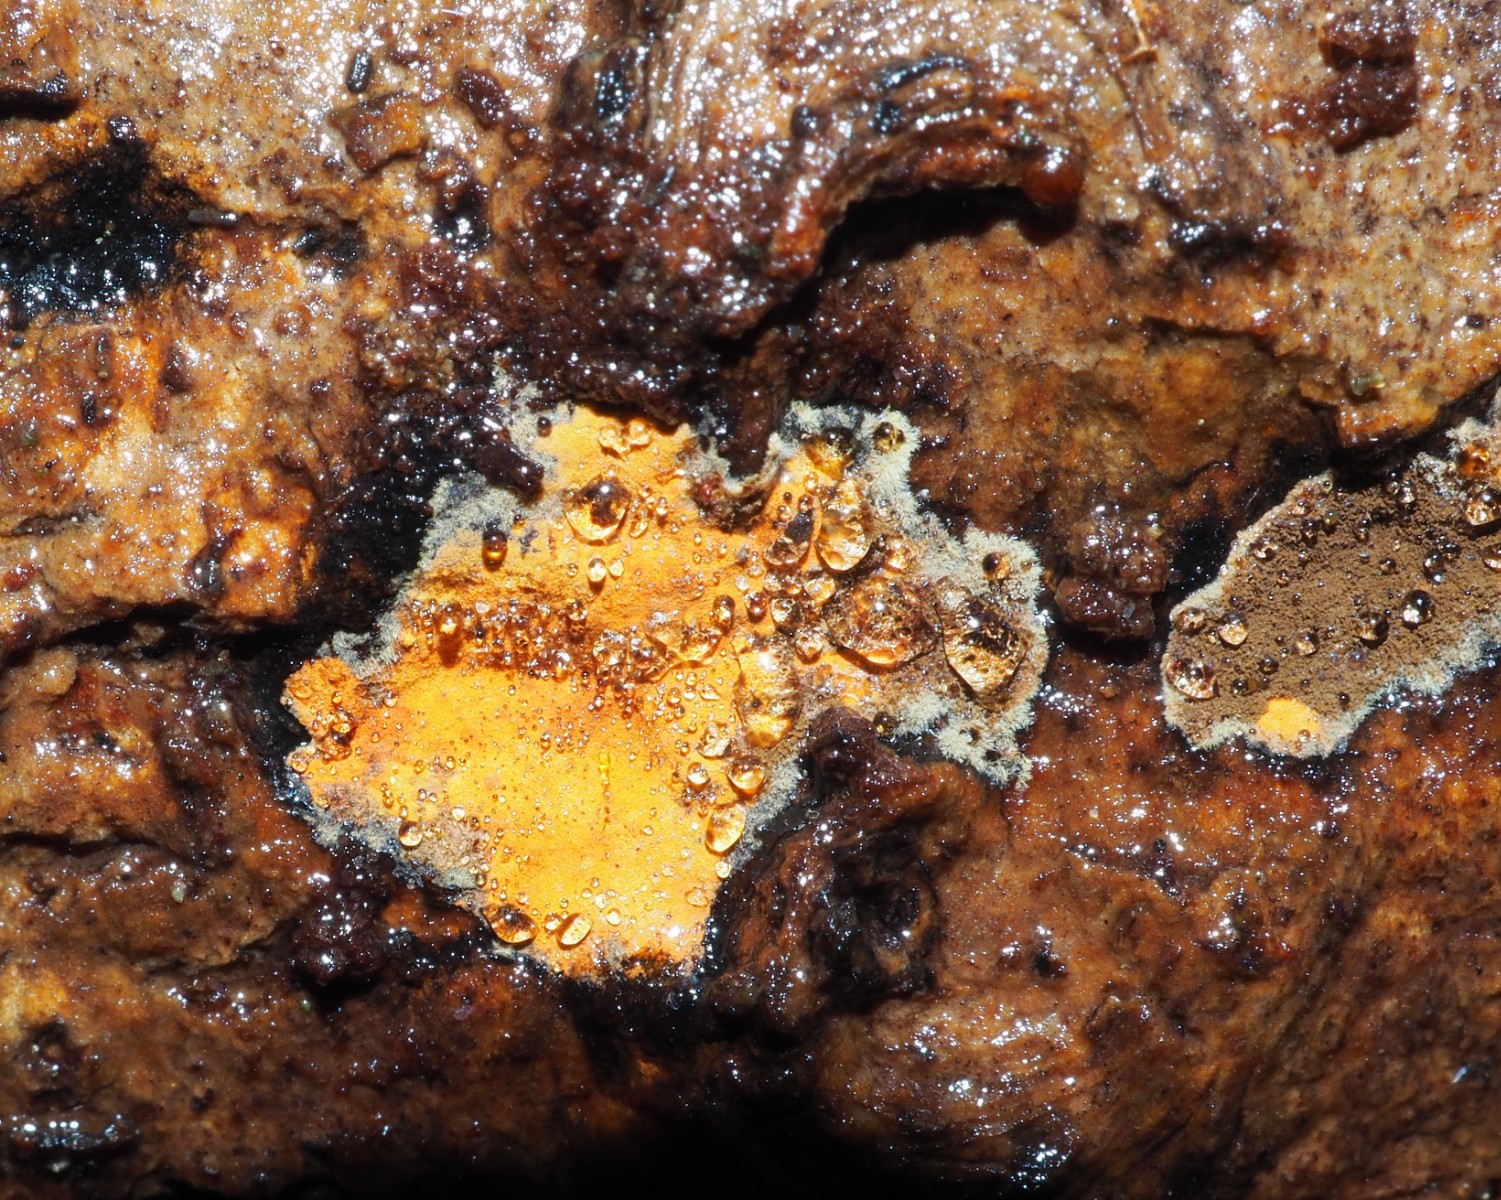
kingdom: Fungi
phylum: Ascomycota
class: Sordariomycetes
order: Xylariales
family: Hypoxylaceae
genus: Nodulisporium
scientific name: Nodulisporium
